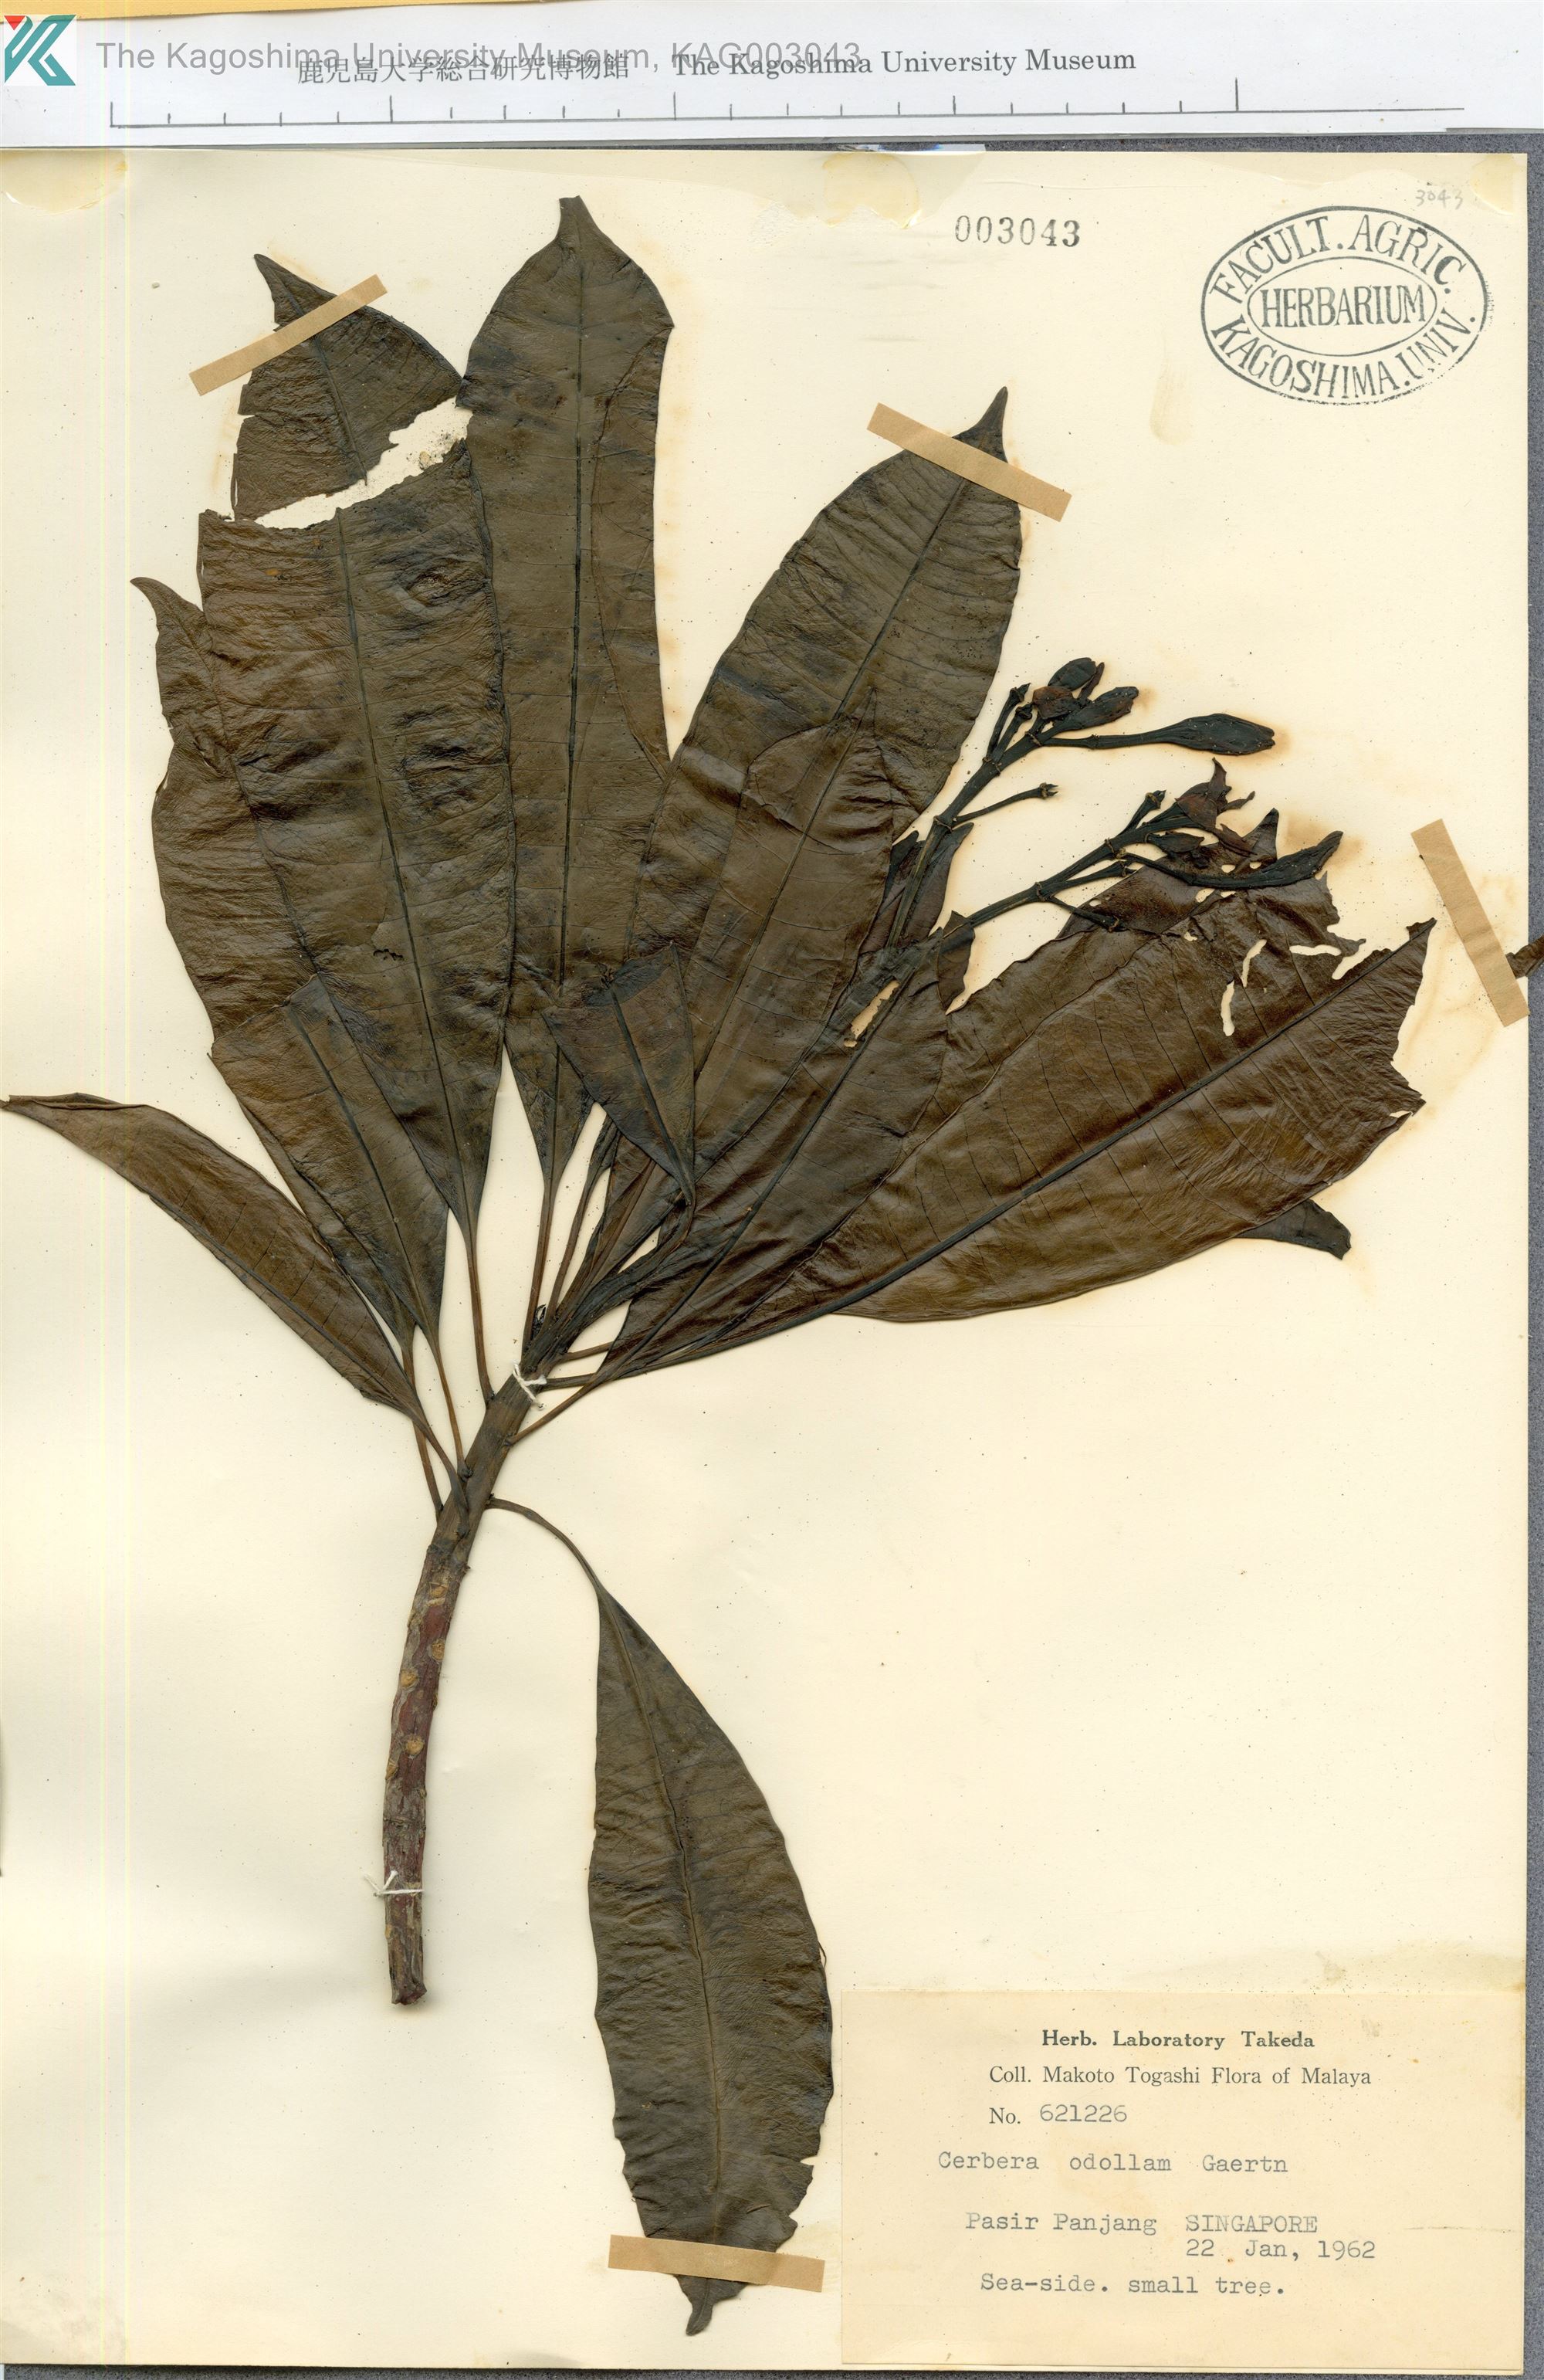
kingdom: Plantae
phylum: Tracheophyta
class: Magnoliopsida
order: Gentianales
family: Apocynaceae
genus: Cerbera
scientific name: Cerbera odollam
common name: Pong-pong
